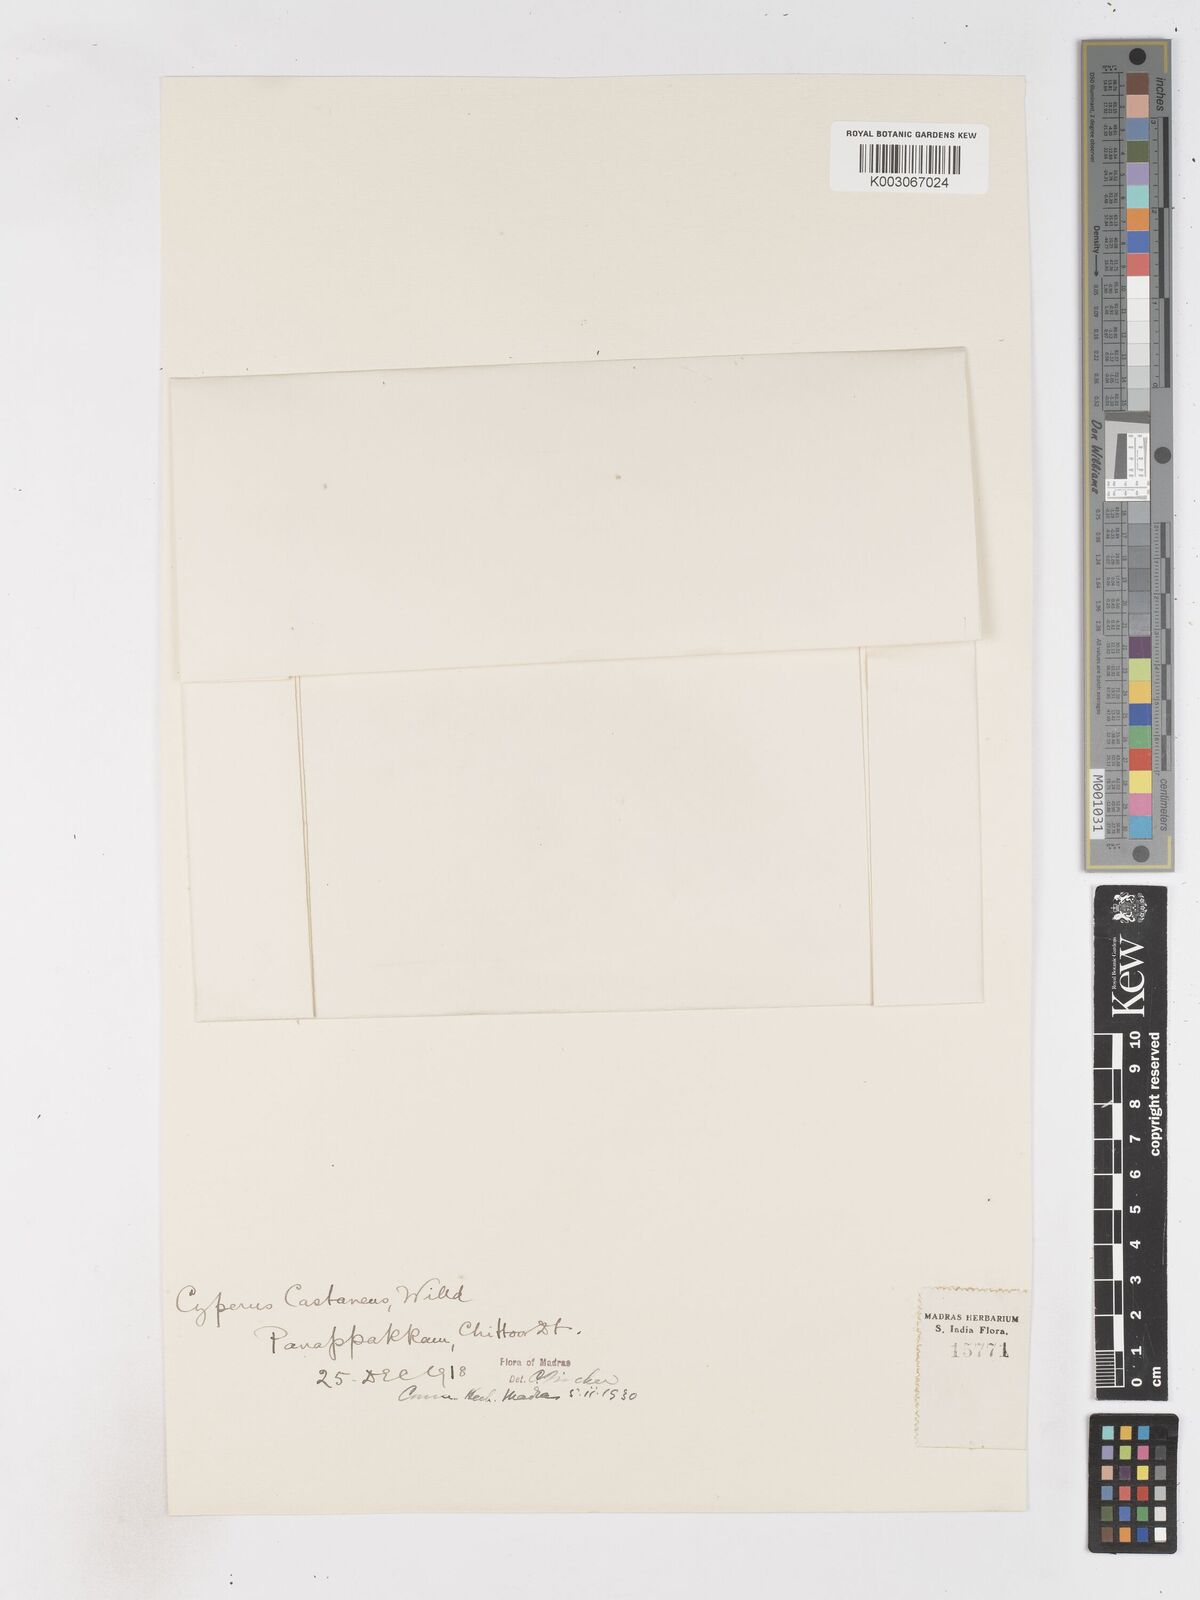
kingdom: Plantae
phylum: Tracheophyta
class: Liliopsida
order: Poales
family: Cyperaceae
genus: Cyperus
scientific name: Cyperus castaneus
